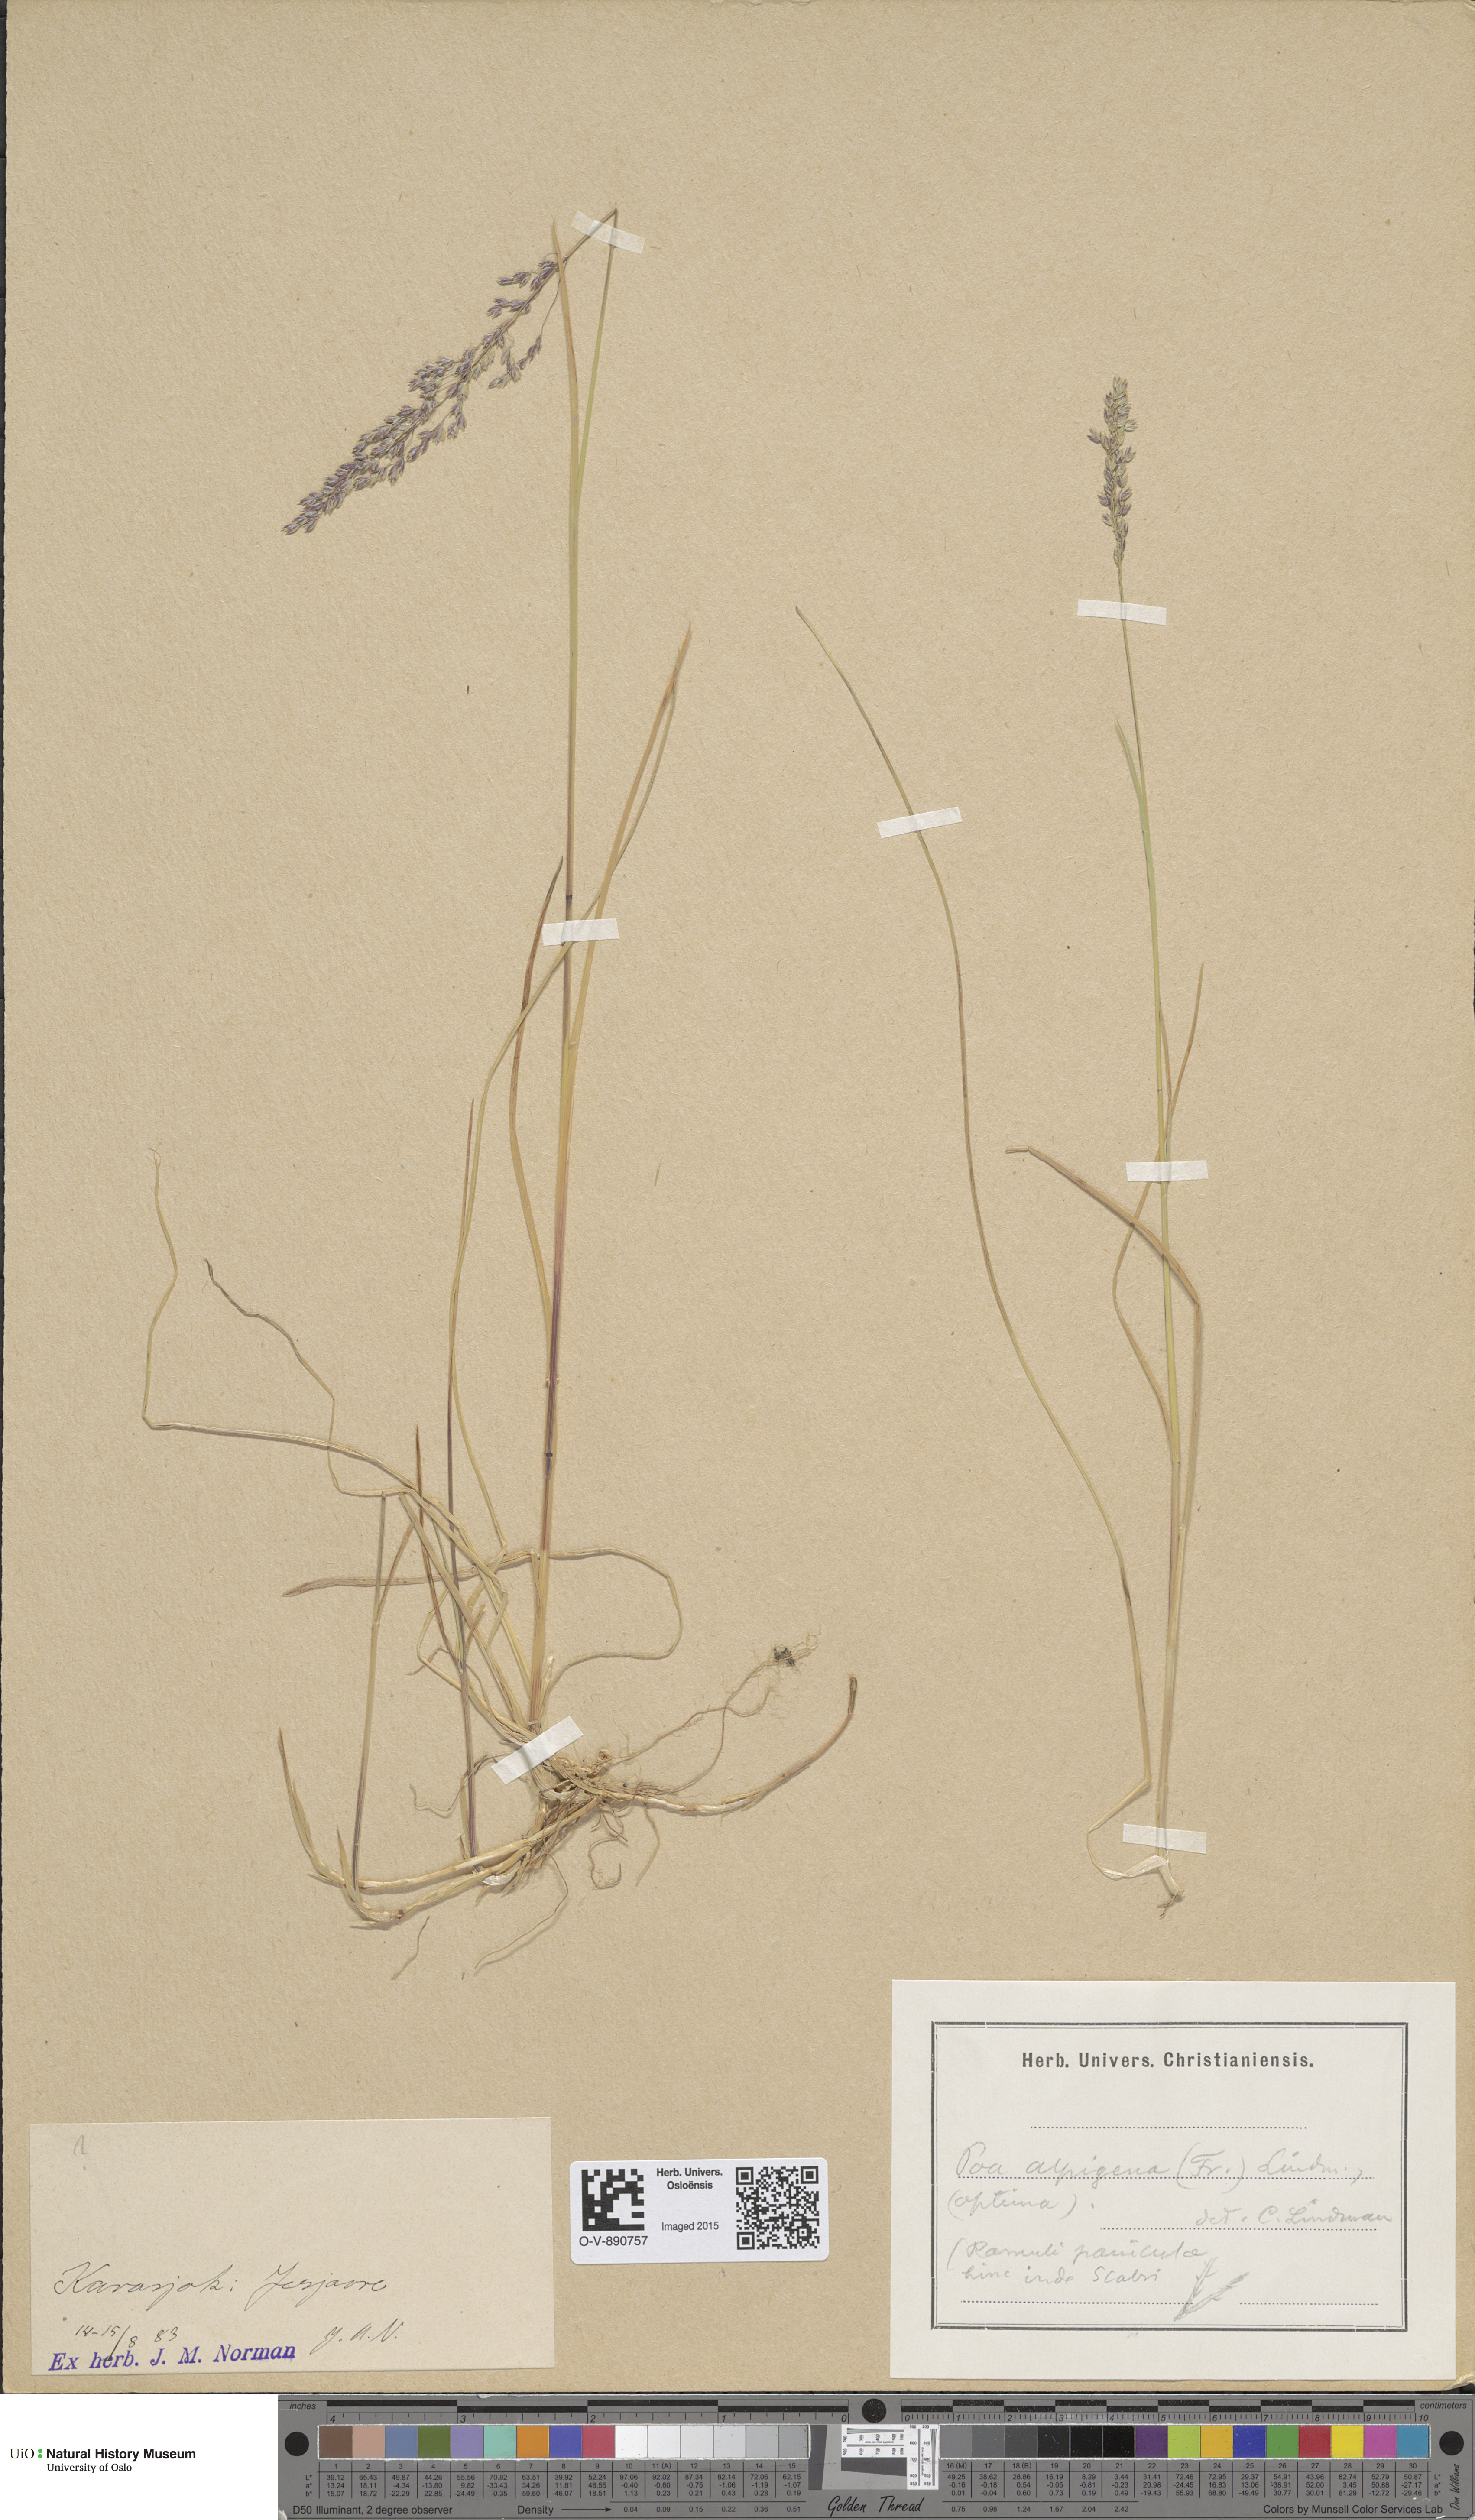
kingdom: Plantae
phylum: Tracheophyta
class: Liliopsida
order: Poales
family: Poaceae
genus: Poa
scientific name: Poa alpigena
